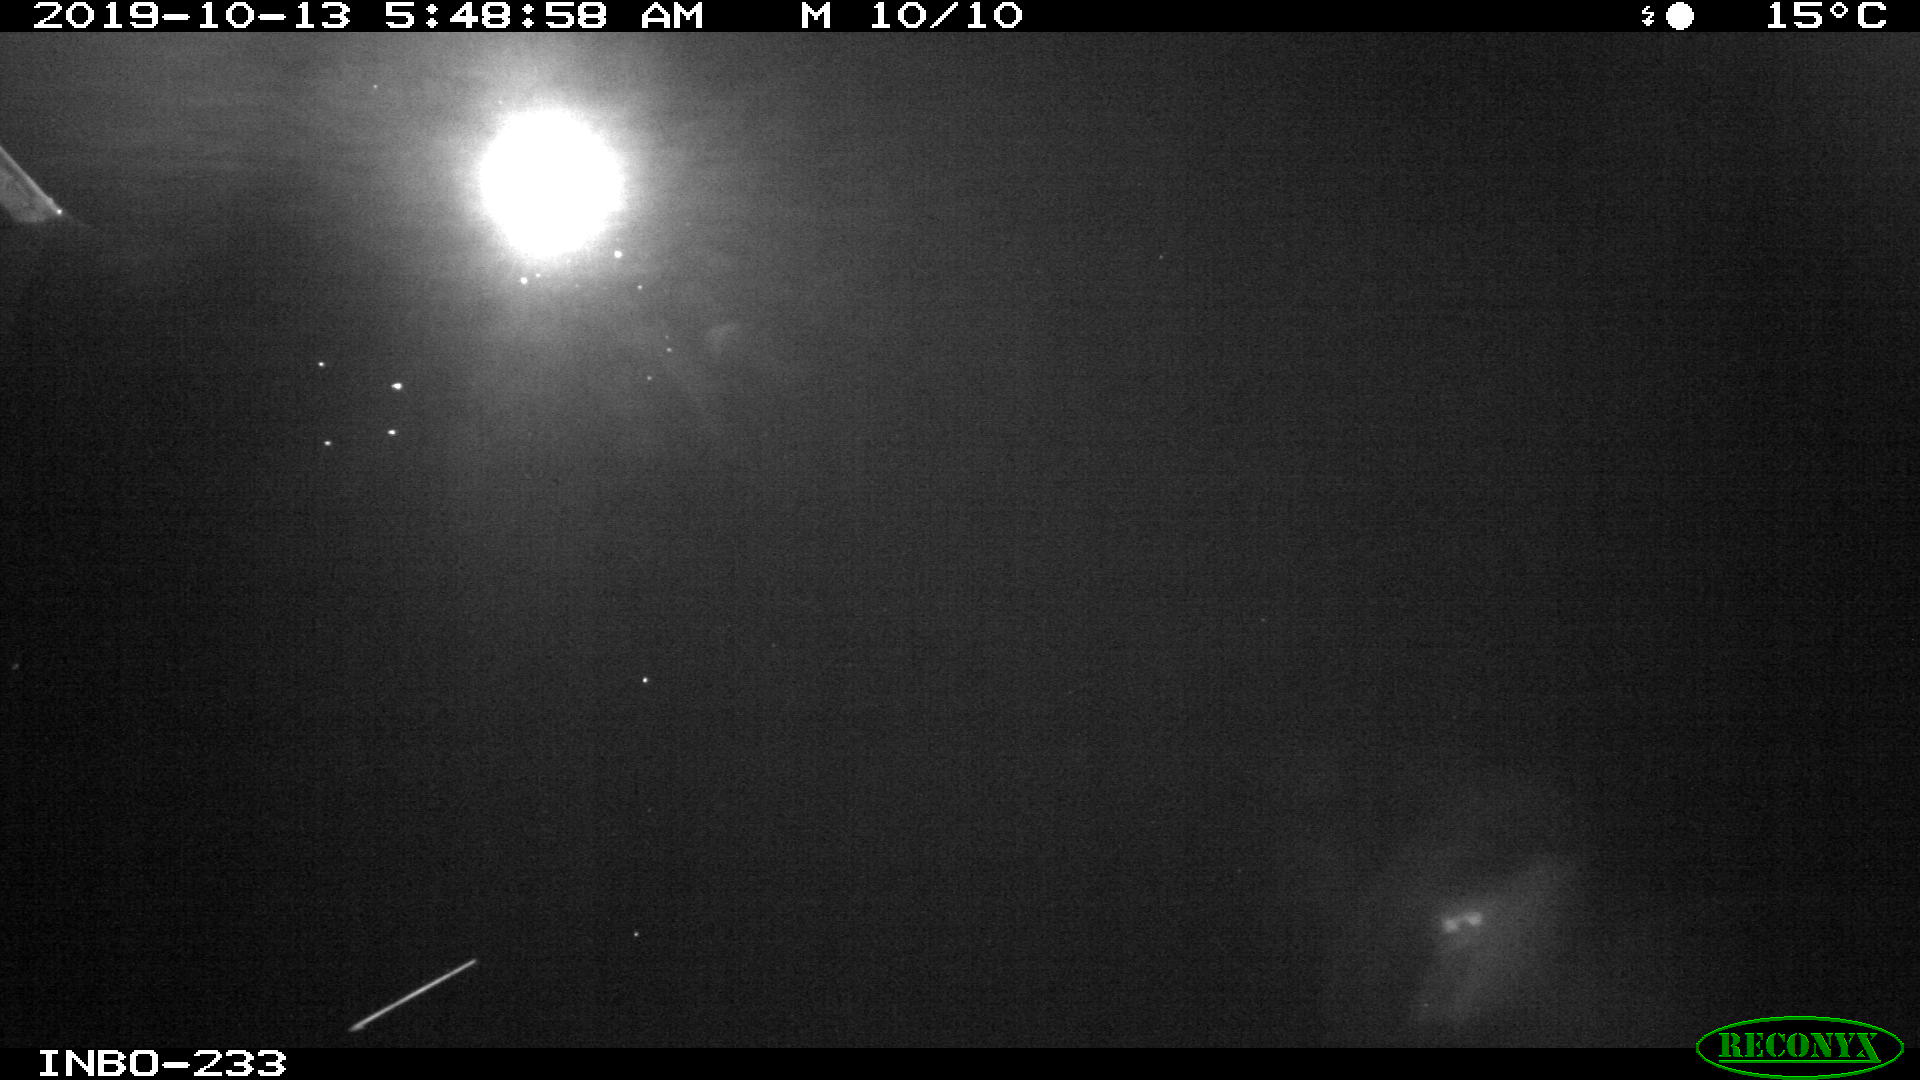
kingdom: Animalia
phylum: Chordata
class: Aves
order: Anseriformes
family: Anatidae
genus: Anas
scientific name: Anas platyrhynchos
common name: Mallard
